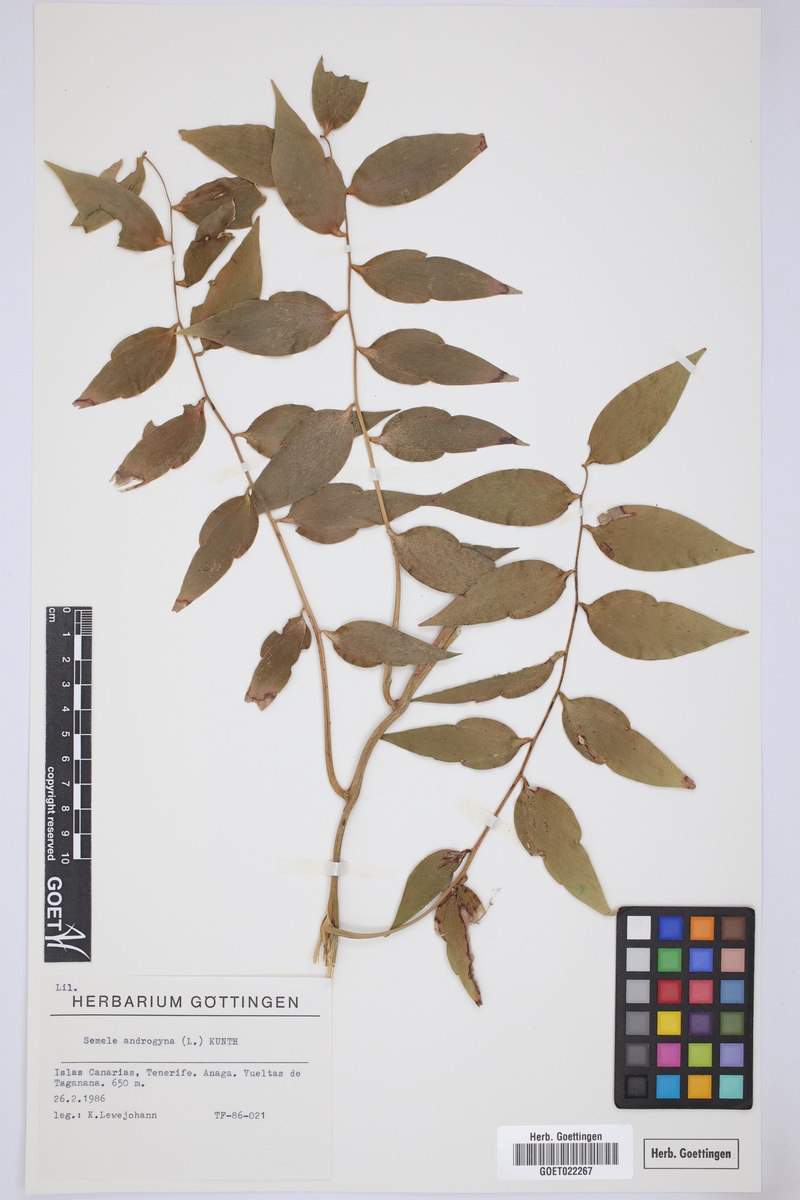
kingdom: Plantae
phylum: Tracheophyta
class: Liliopsida
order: Asparagales
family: Asparagaceae
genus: Semele
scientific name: Semele androgyna
